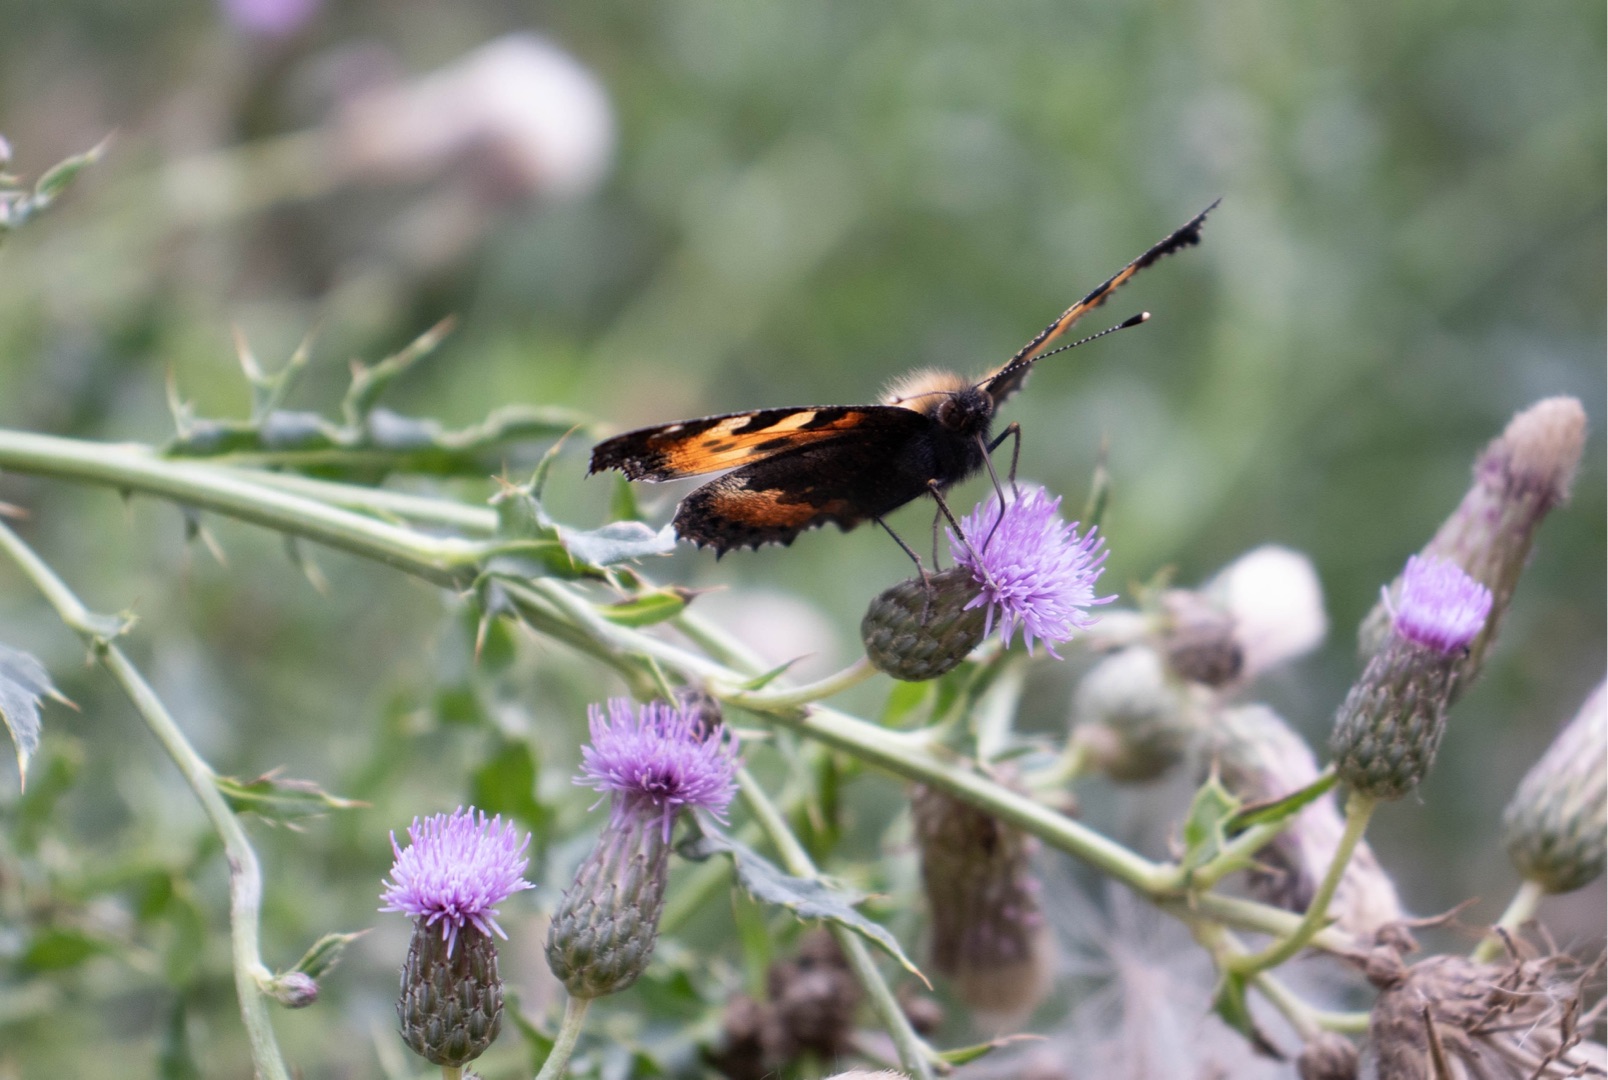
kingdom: Animalia
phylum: Arthropoda
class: Insecta
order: Lepidoptera
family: Nymphalidae
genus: Aglais
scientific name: Aglais urticae
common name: Nældens takvinge
